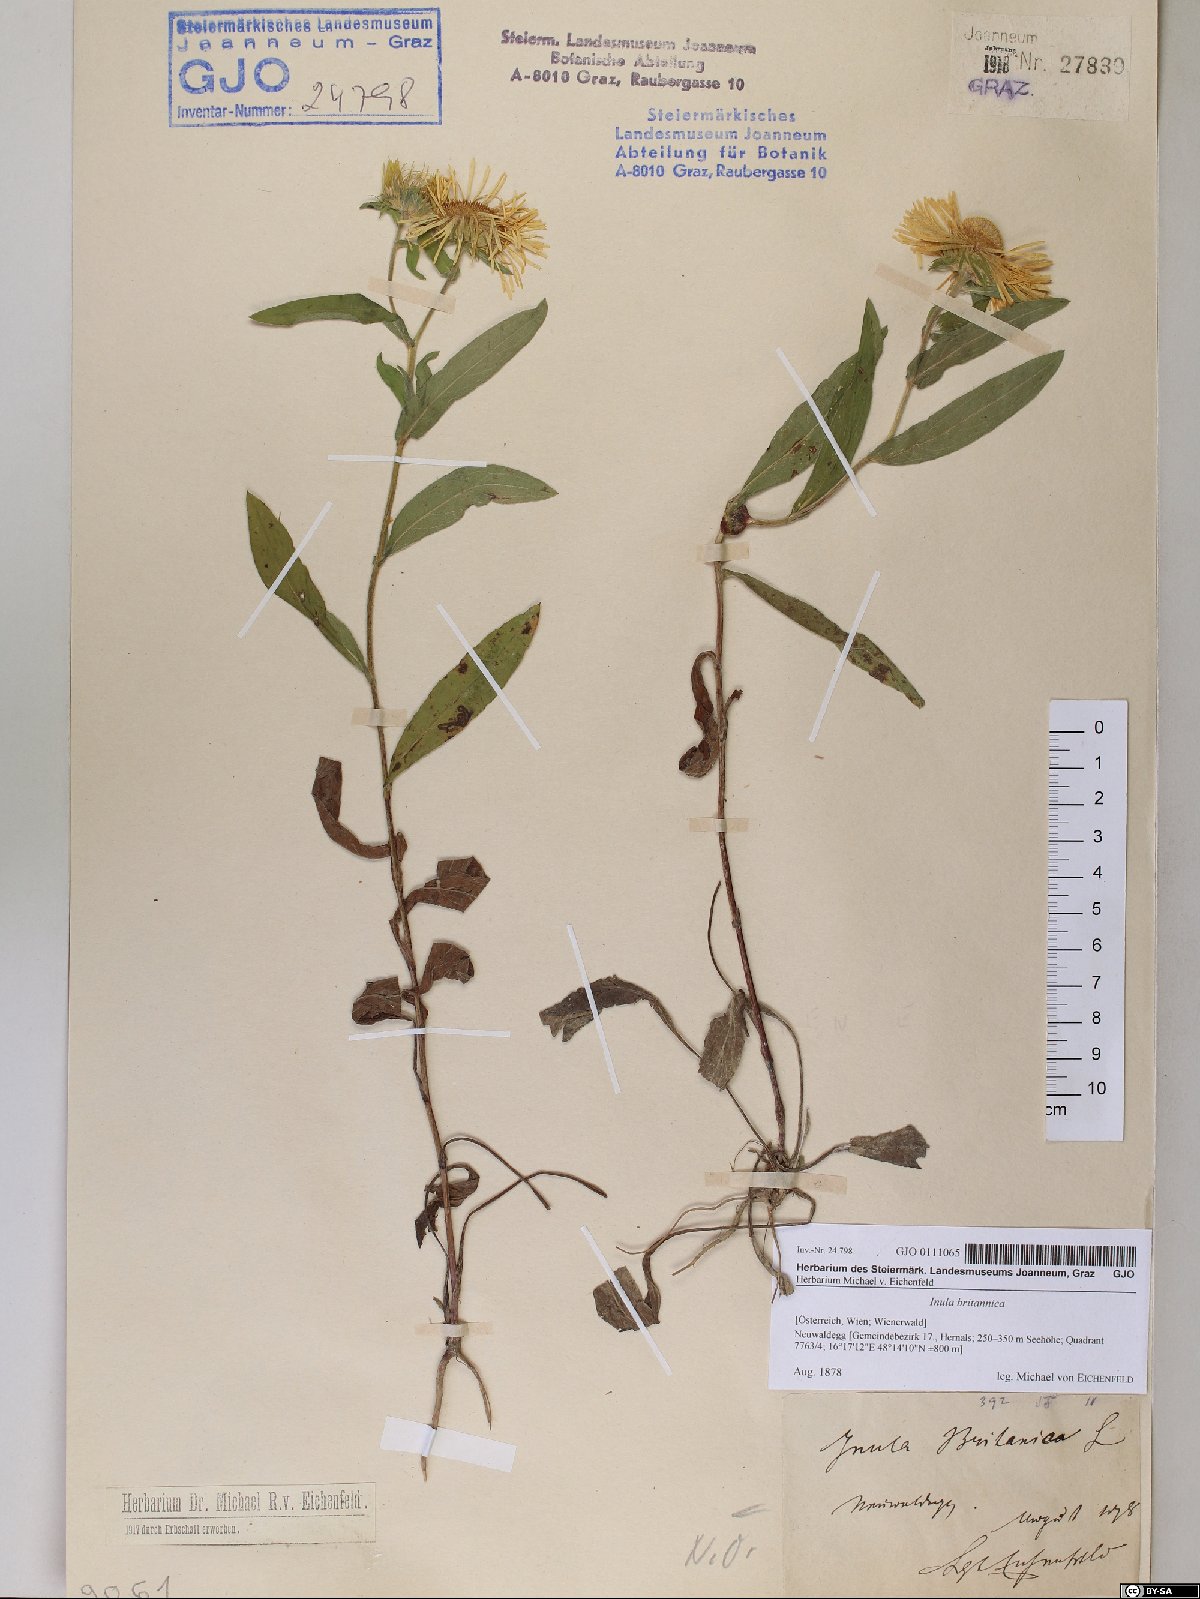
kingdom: Plantae
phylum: Tracheophyta
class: Magnoliopsida
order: Asterales
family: Asteraceae
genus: Pentanema
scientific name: Pentanema britannicum
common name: British elecampane
